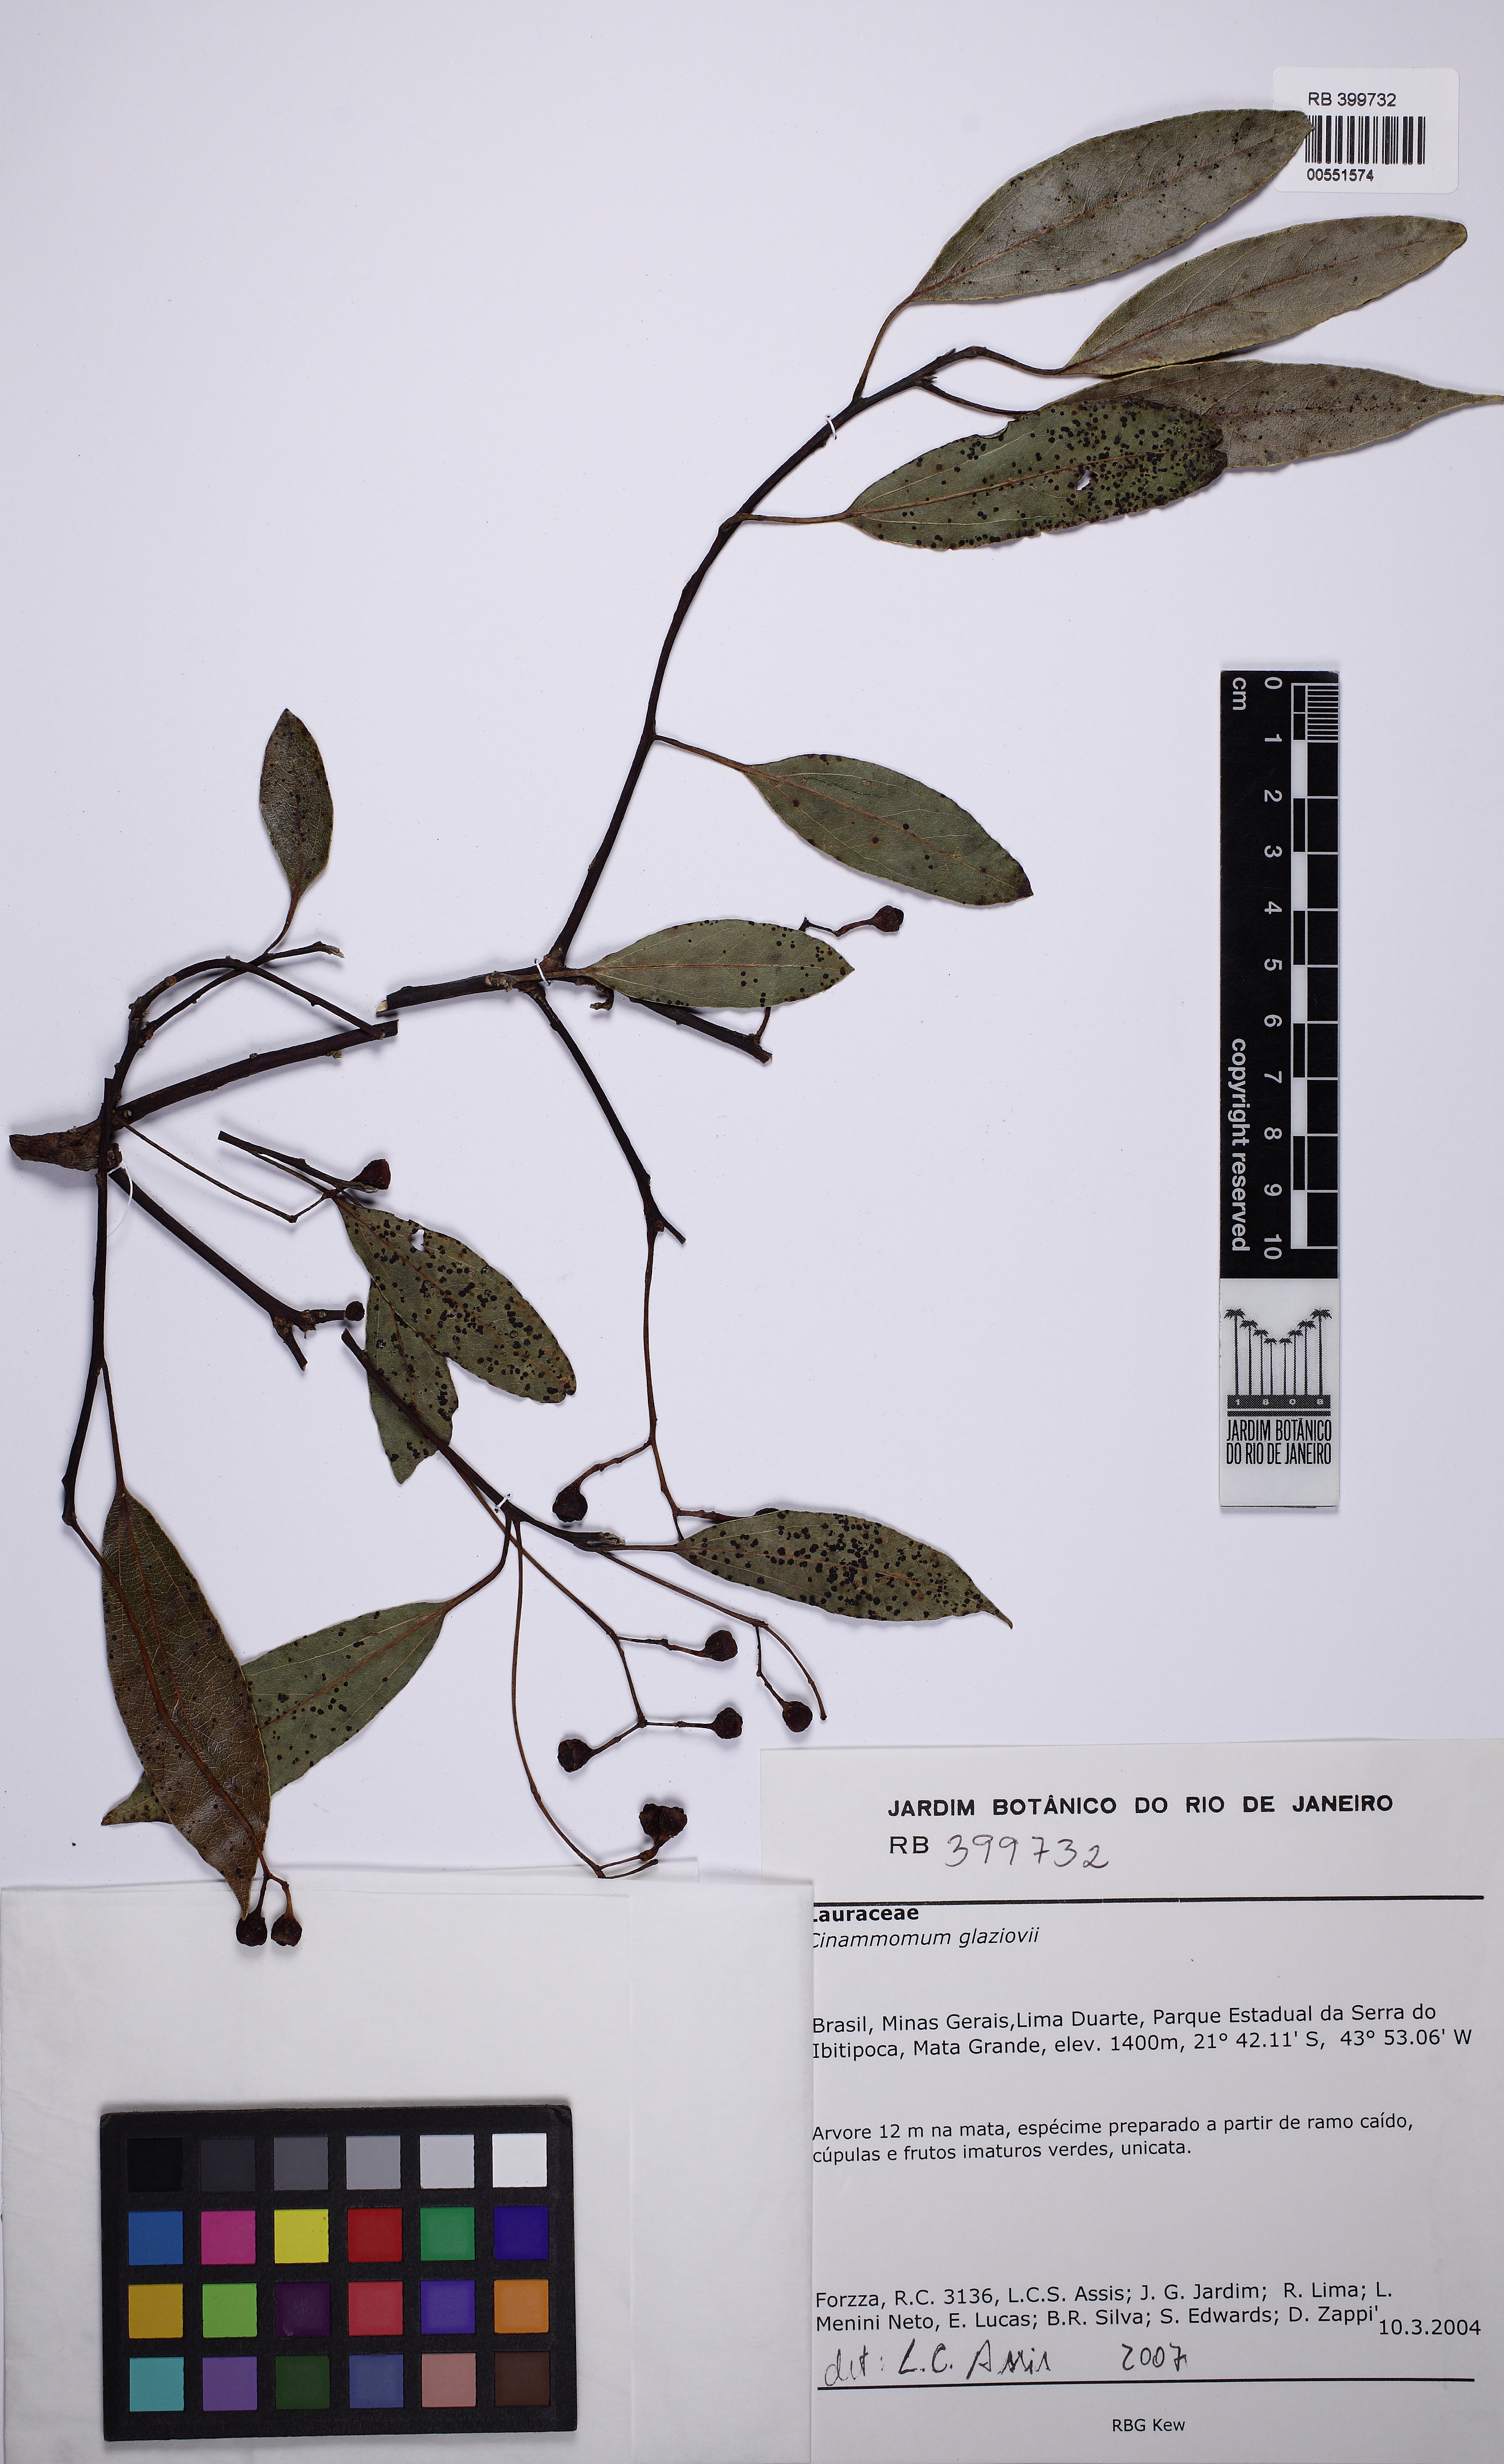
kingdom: Plantae
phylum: Tracheophyta
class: Magnoliopsida
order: Laurales
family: Lauraceae
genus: Aiouea
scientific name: Aiouea glaziovii
